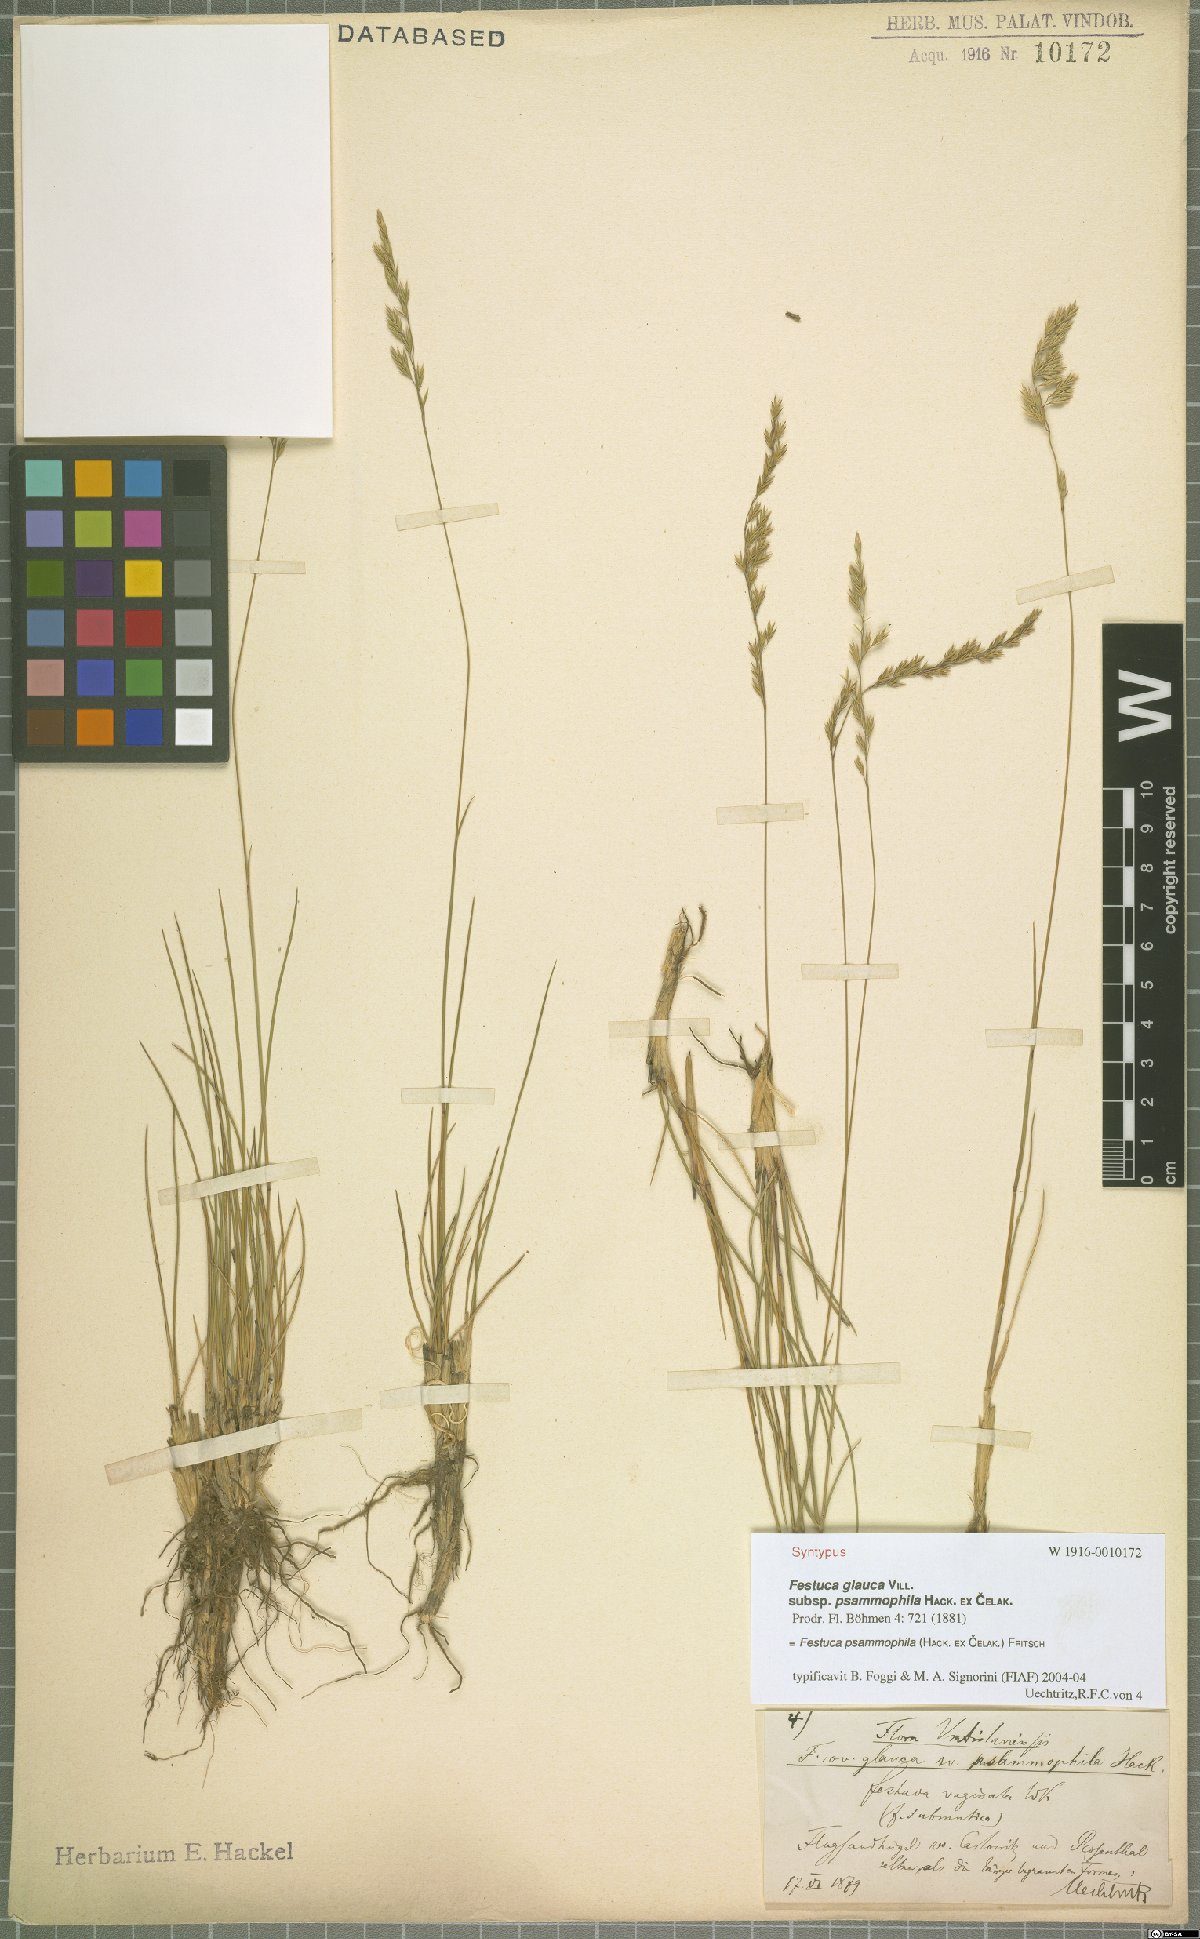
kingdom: Plantae
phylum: Tracheophyta
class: Liliopsida
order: Poales
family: Poaceae
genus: Festuca
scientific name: Festuca psammophila
